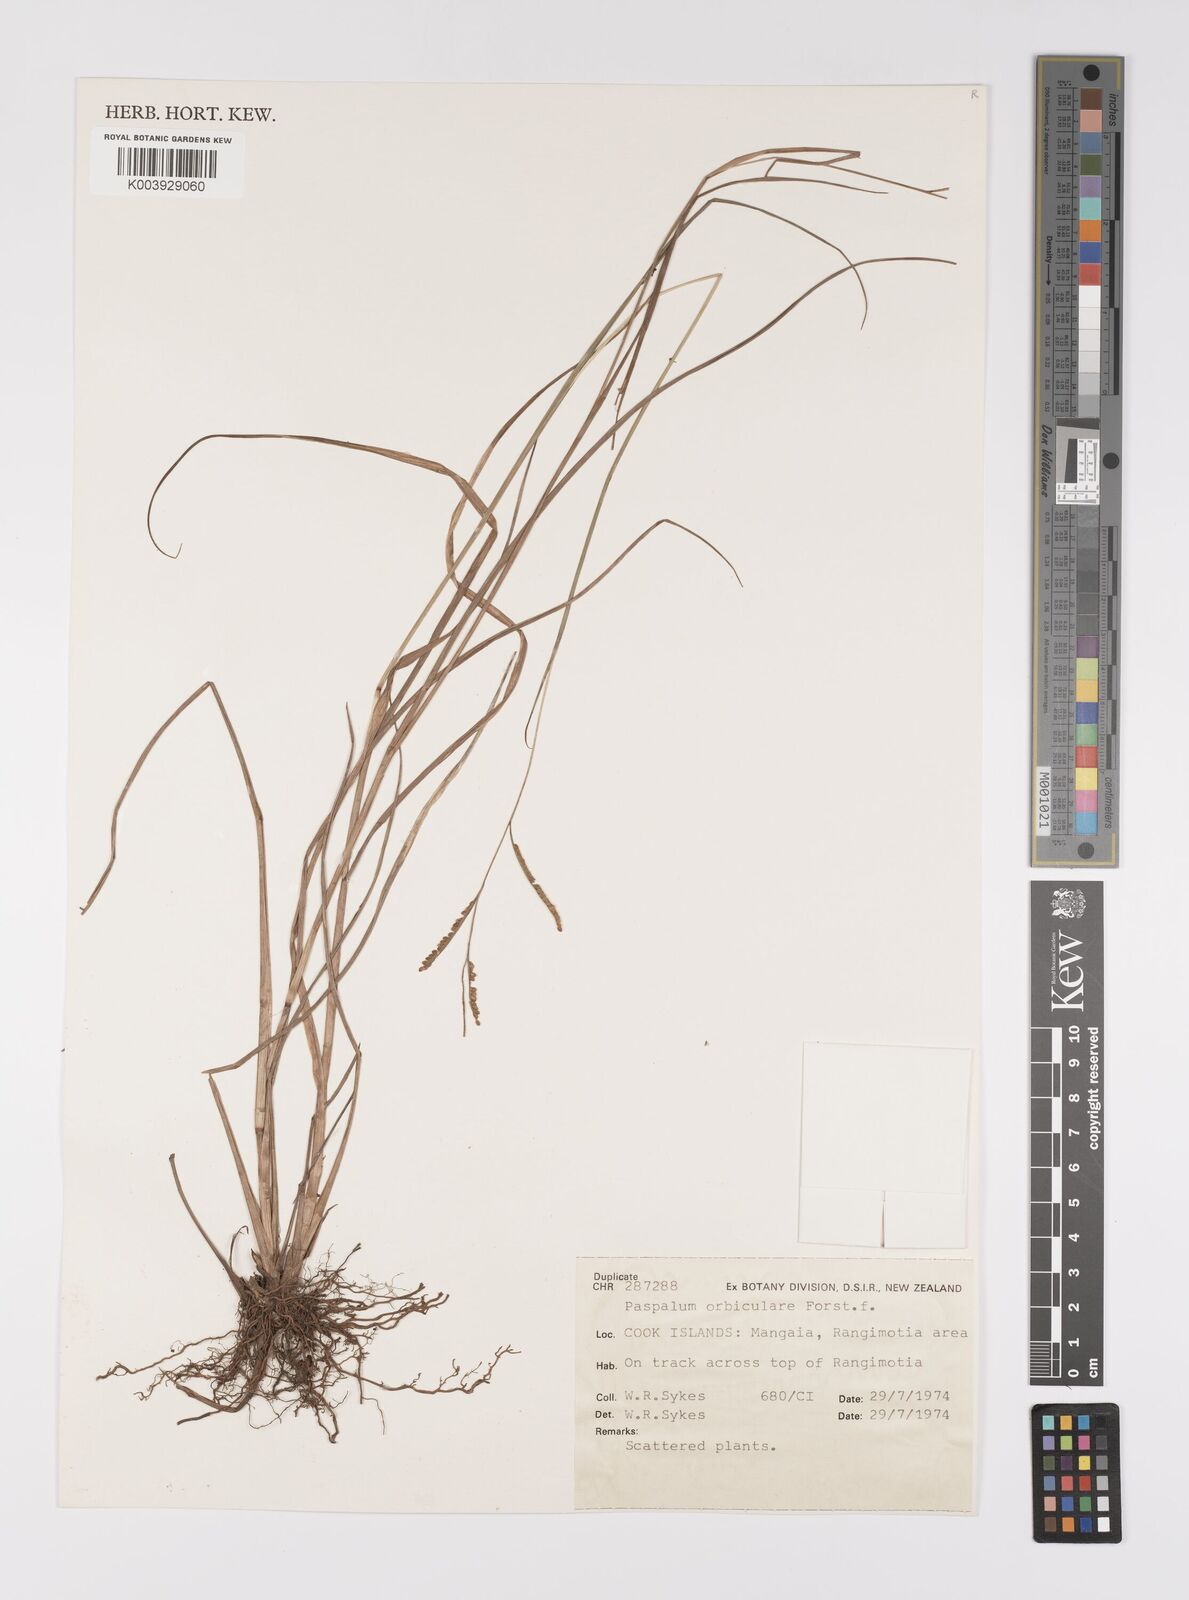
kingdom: Plantae
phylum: Tracheophyta
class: Liliopsida
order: Poales
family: Poaceae
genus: Paspalum
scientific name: Paspalum scrobiculatum
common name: Kodo millet
